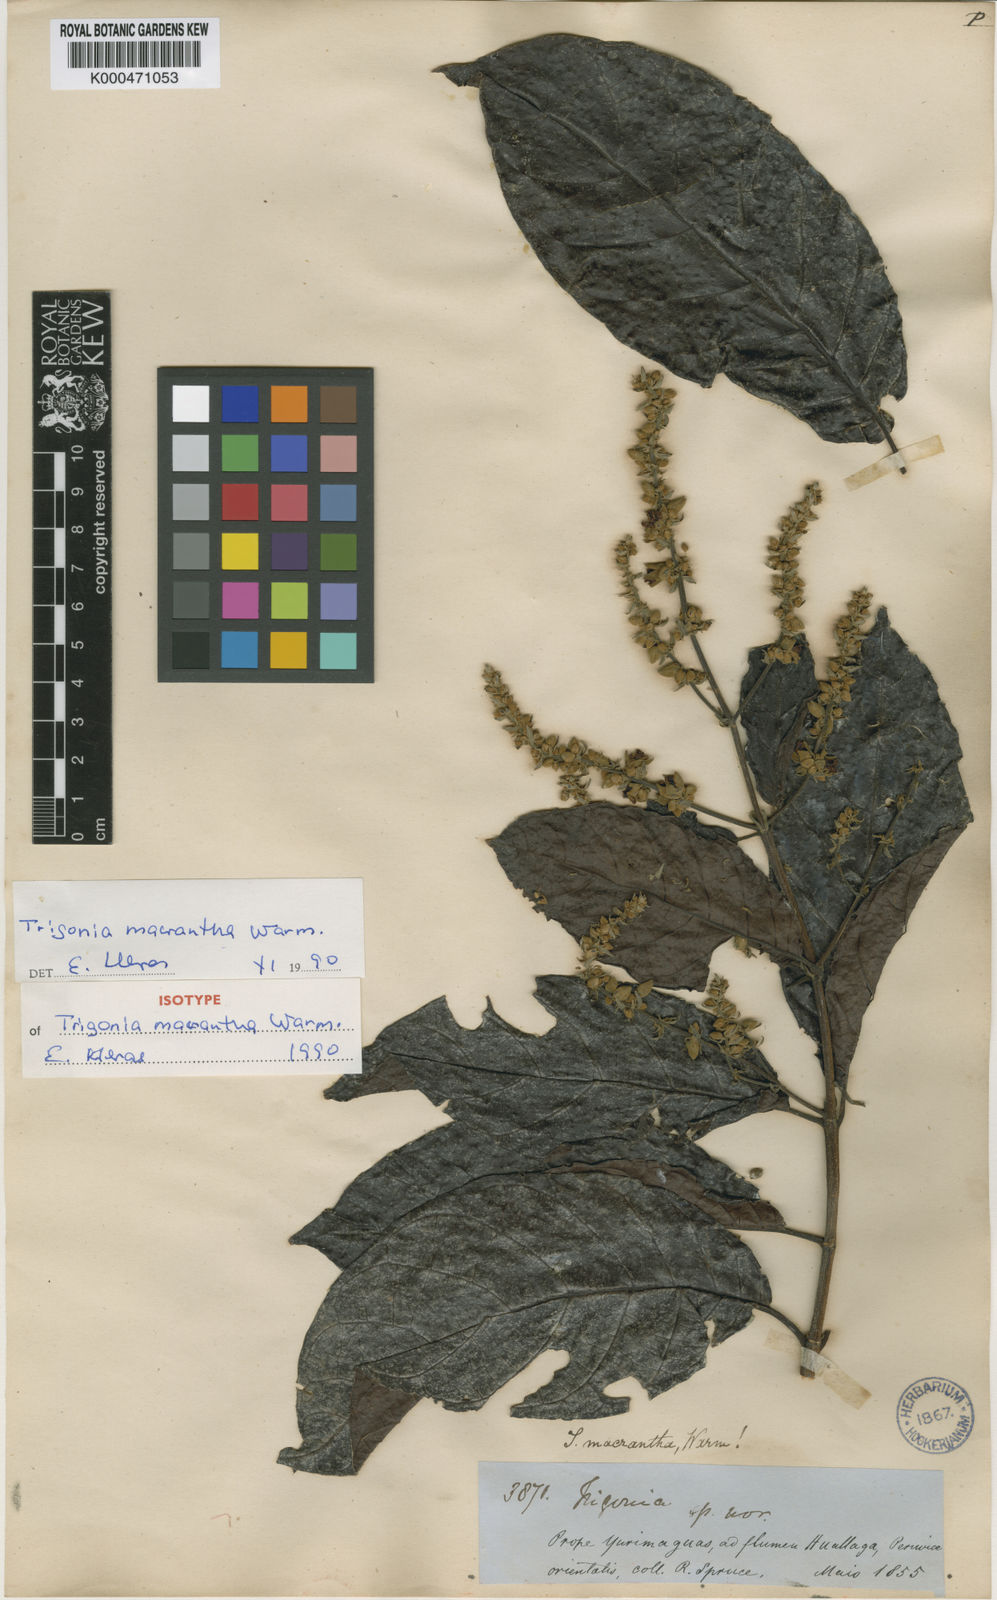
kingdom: Plantae
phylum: Tracheophyta
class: Magnoliopsida
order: Malpighiales
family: Trigoniaceae
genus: Trigonia
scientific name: Trigonia macrantha
